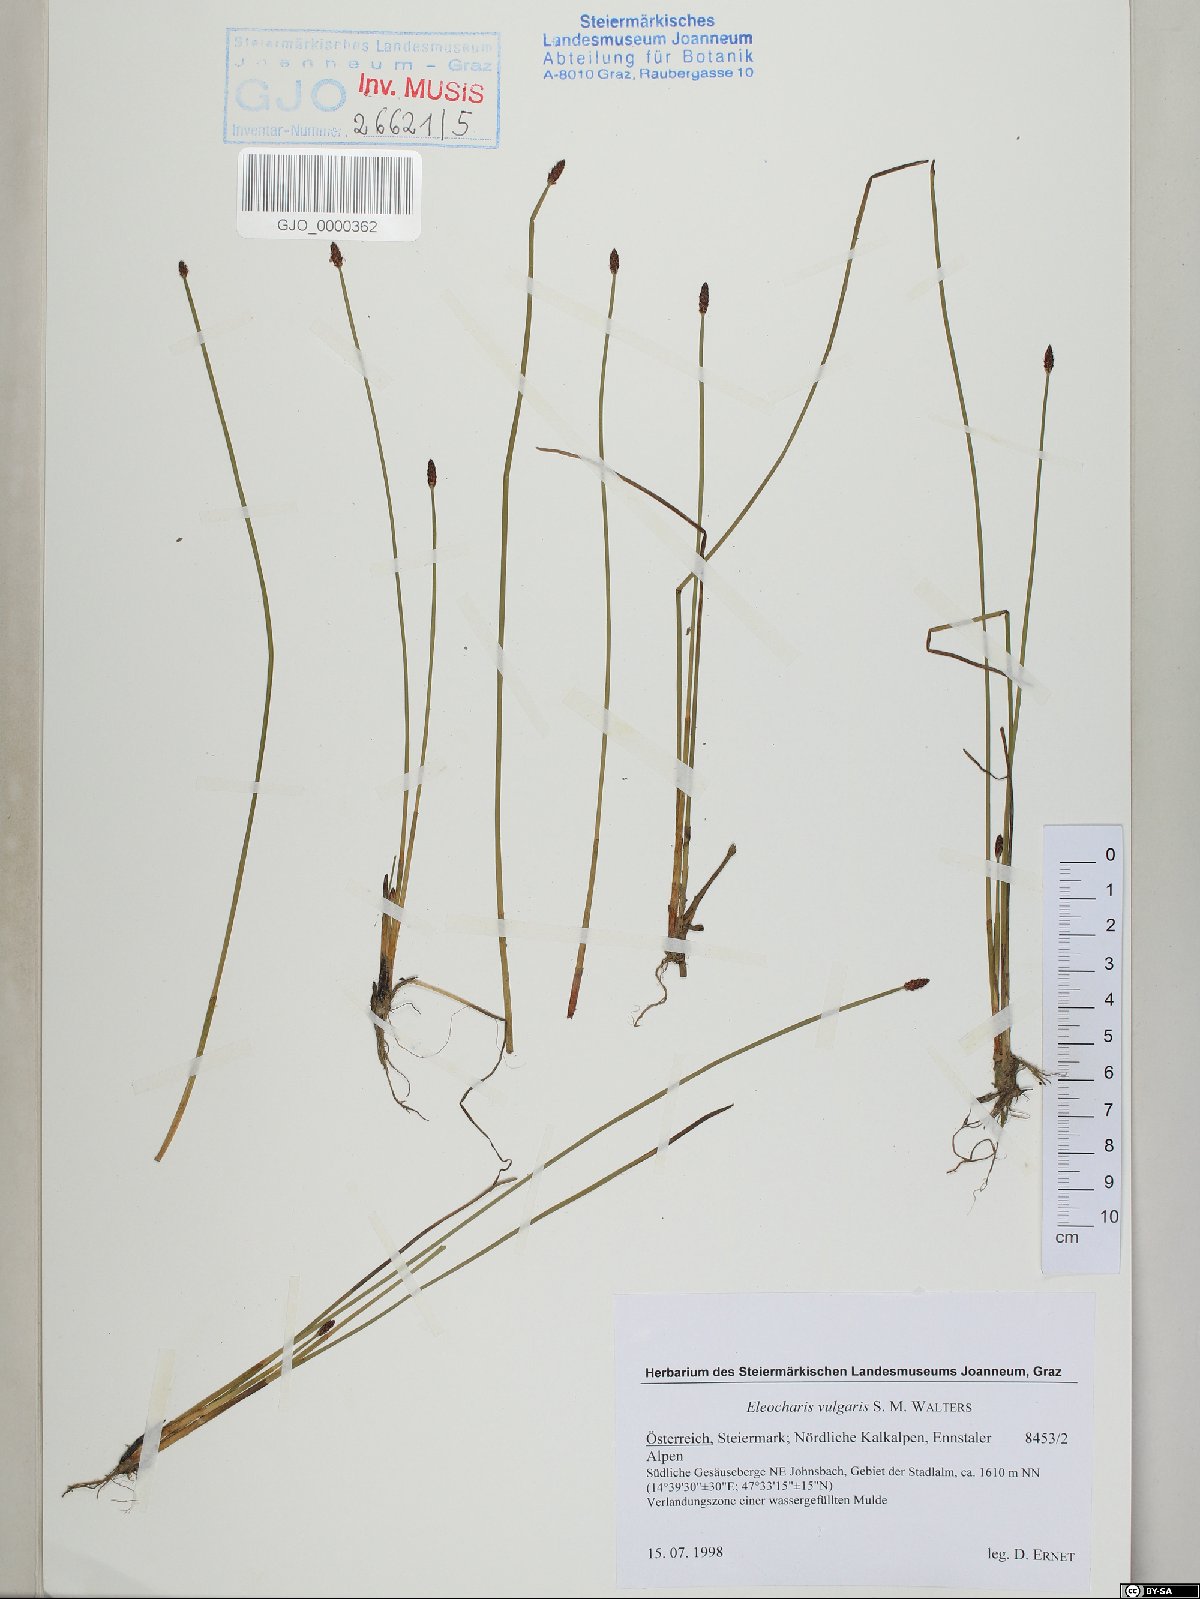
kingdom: Plantae
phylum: Tracheophyta
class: Liliopsida
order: Poales
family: Cyperaceae
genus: Eleocharis
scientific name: Eleocharis palustris
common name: Common spike-rush
